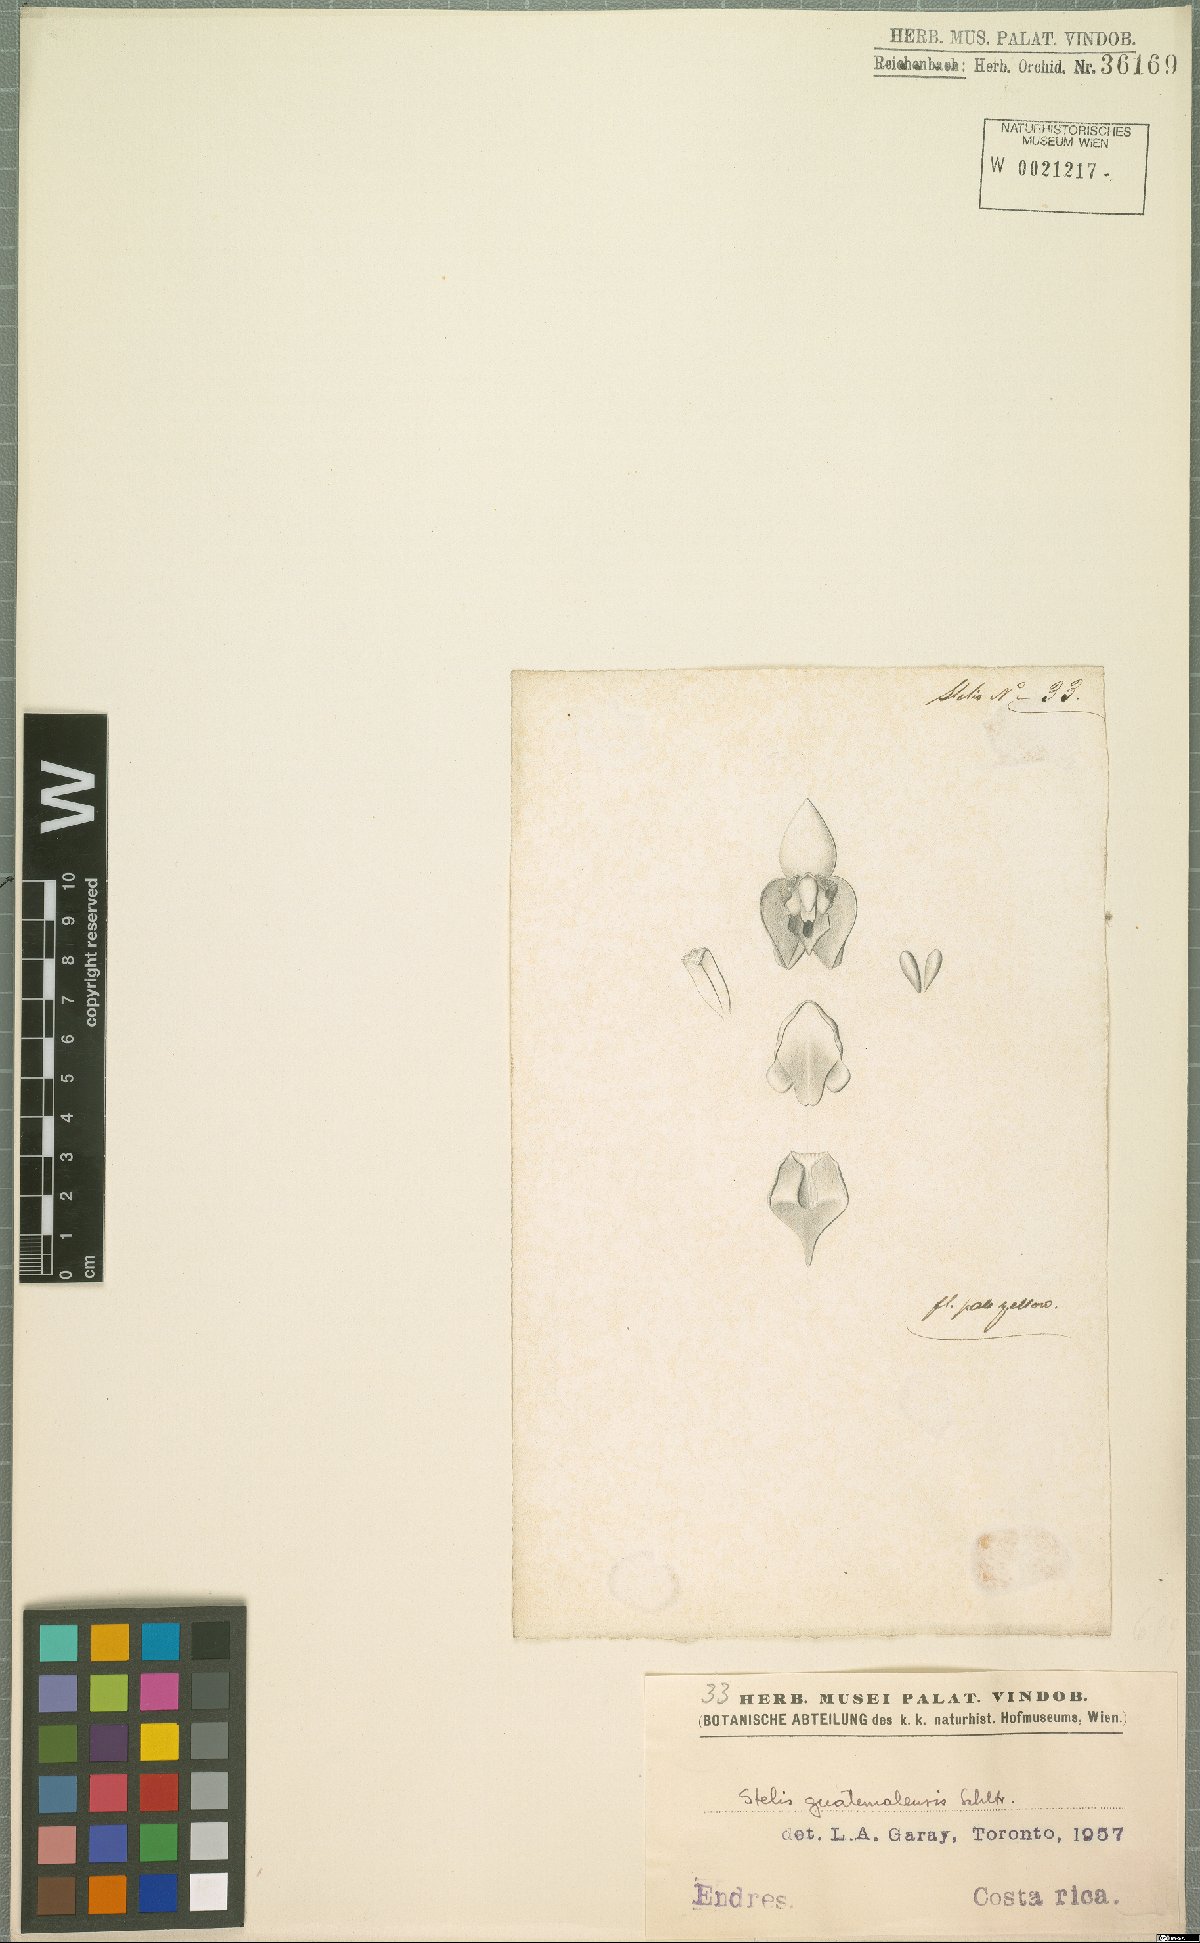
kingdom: Plantae
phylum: Tracheophyta
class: Liliopsida
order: Asparagales
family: Orchidaceae
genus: Stelis
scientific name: Stelis pardipes
